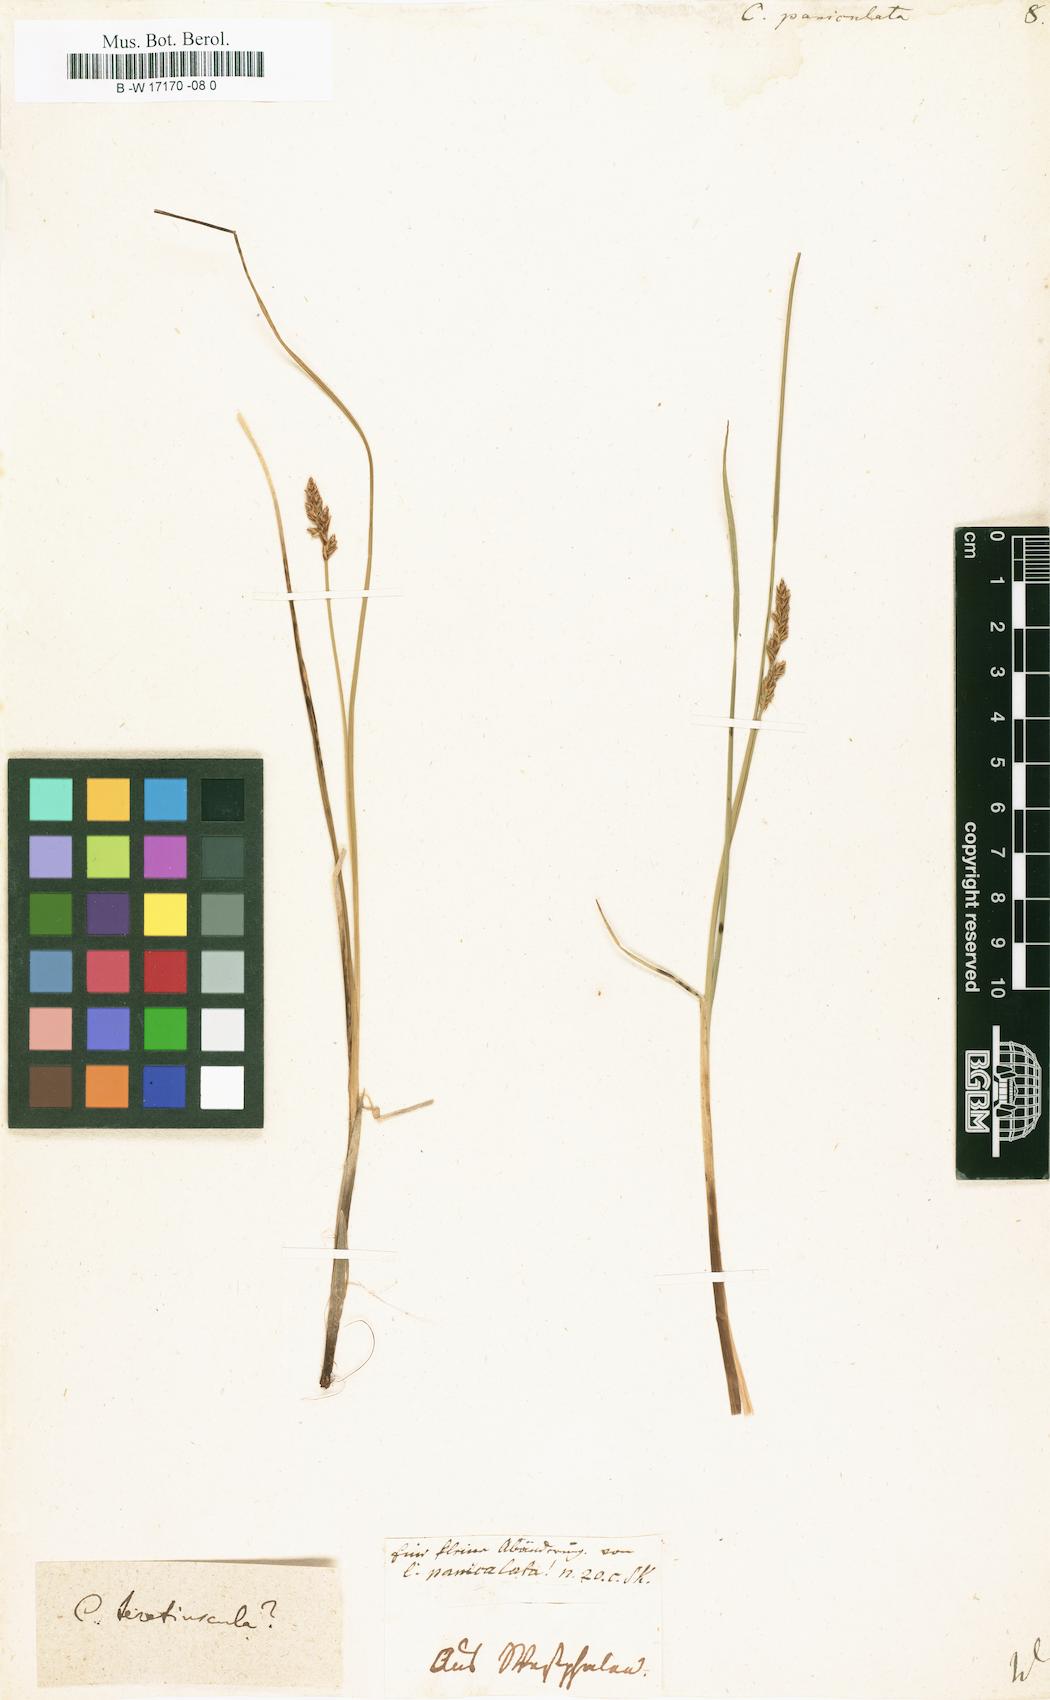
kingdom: Plantae
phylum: Tracheophyta
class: Liliopsida
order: Poales
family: Cyperaceae
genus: Carex
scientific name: Carex paniculata
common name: Greater tussock-sedge
